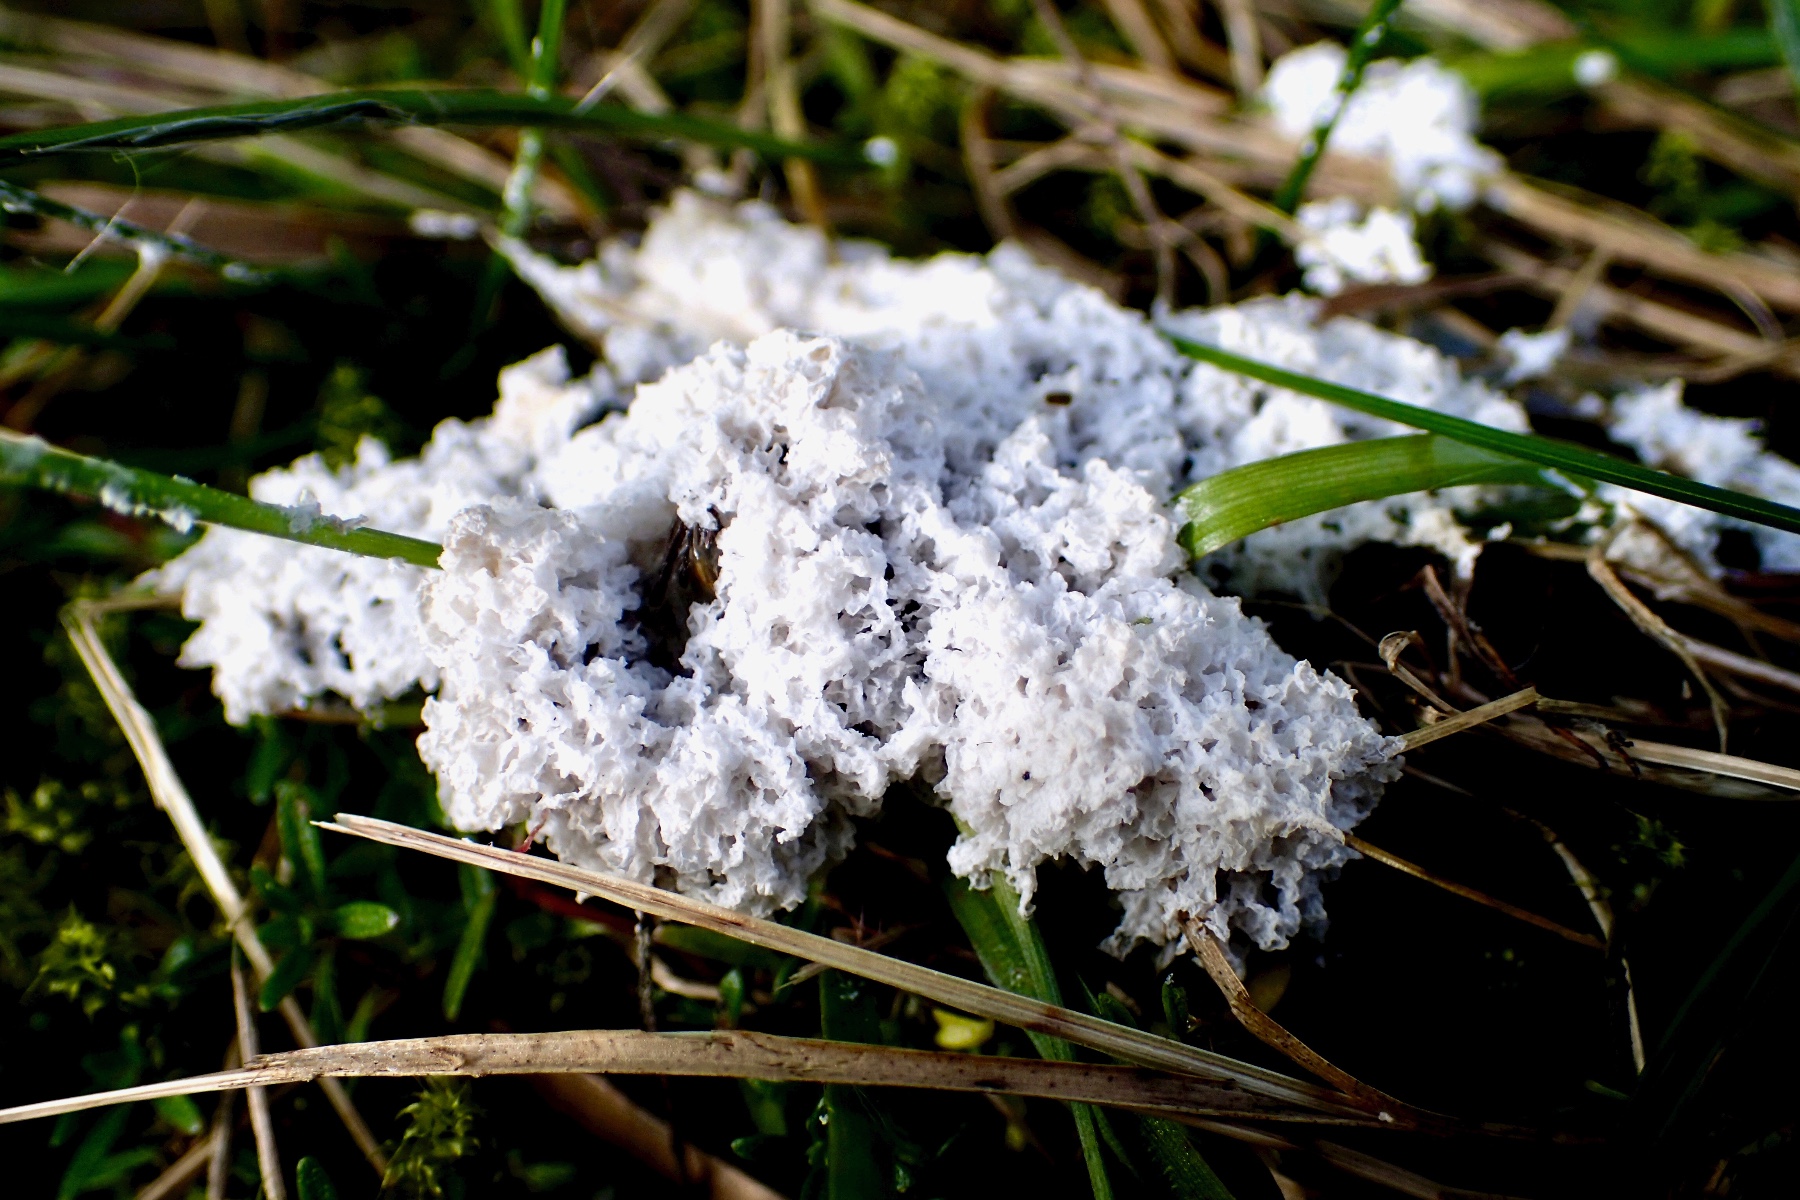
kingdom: Protozoa
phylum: Mycetozoa
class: Myxomycetes
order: Physarales
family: Physaraceae
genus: Didymium
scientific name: Didymium
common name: urteskum
